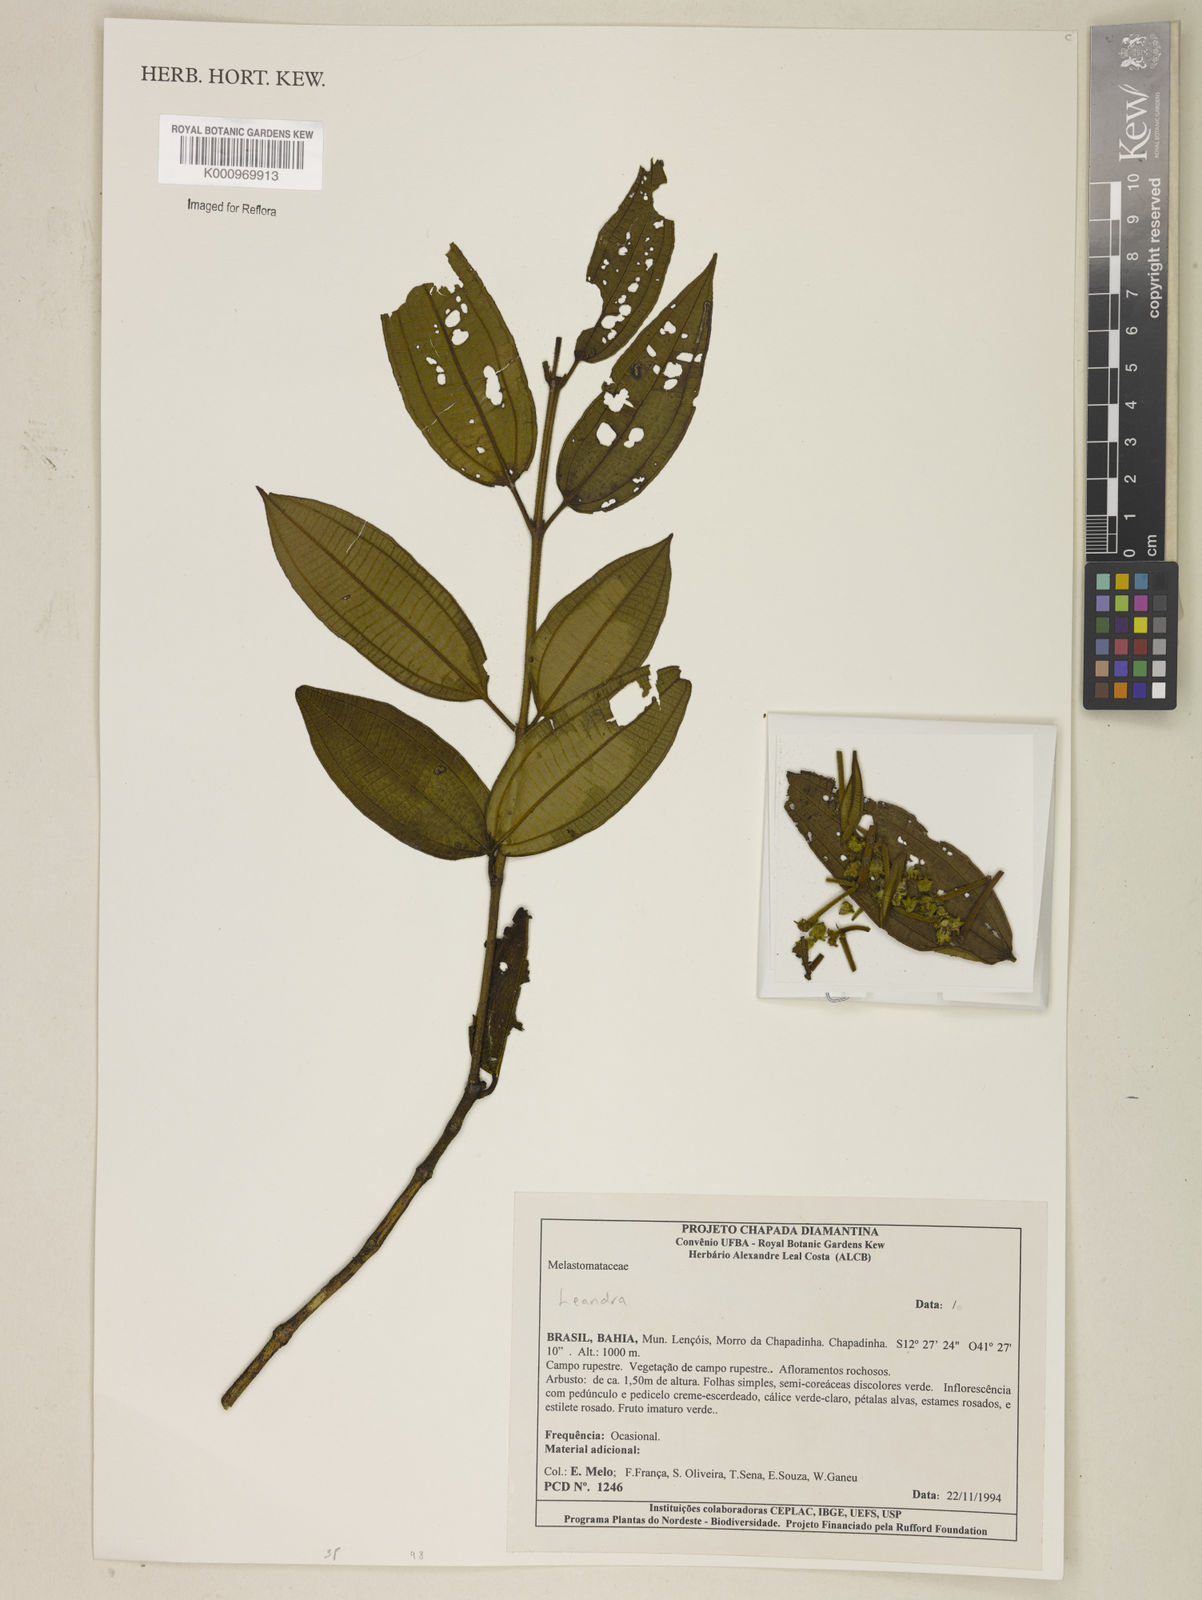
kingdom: Plantae
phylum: Tracheophyta
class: Magnoliopsida
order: Myrtales
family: Melastomataceae
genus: Miconia
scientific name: Miconia
